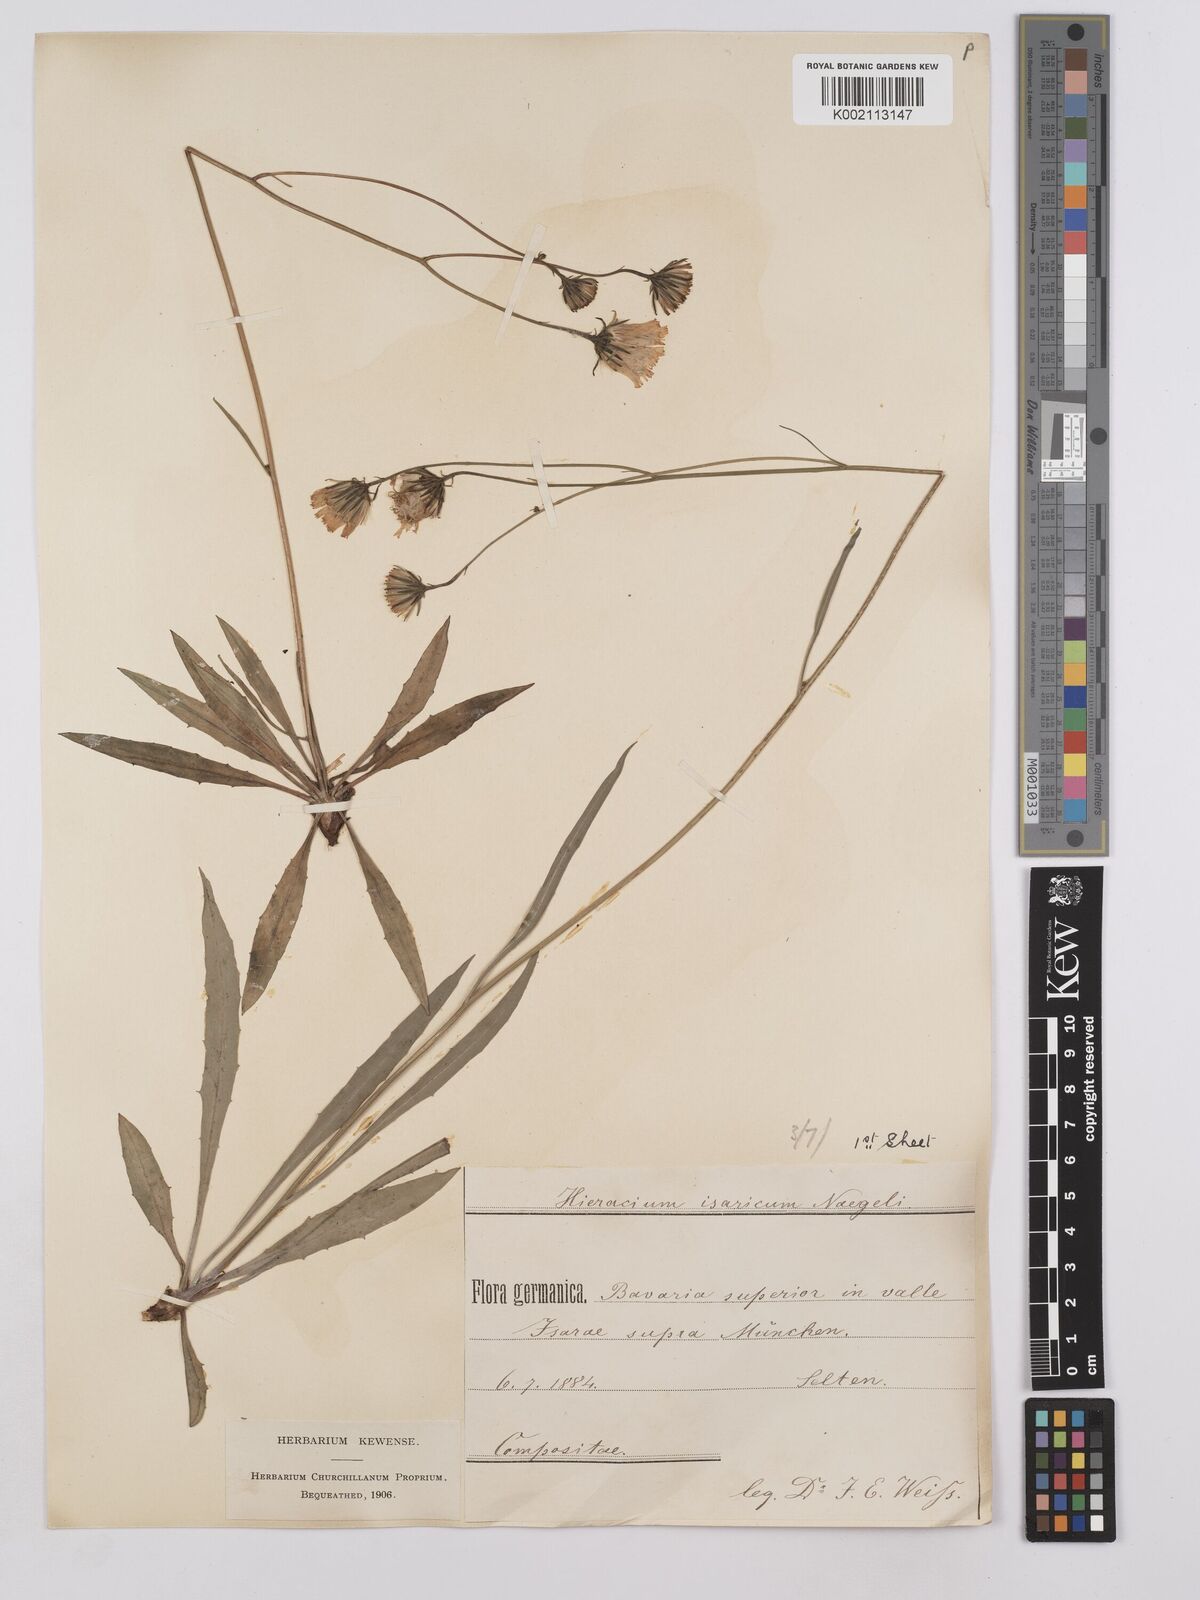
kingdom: Plantae
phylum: Tracheophyta
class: Magnoliopsida
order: Asterales
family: Asteraceae
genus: Hieracium
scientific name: Hieracium glaucum
